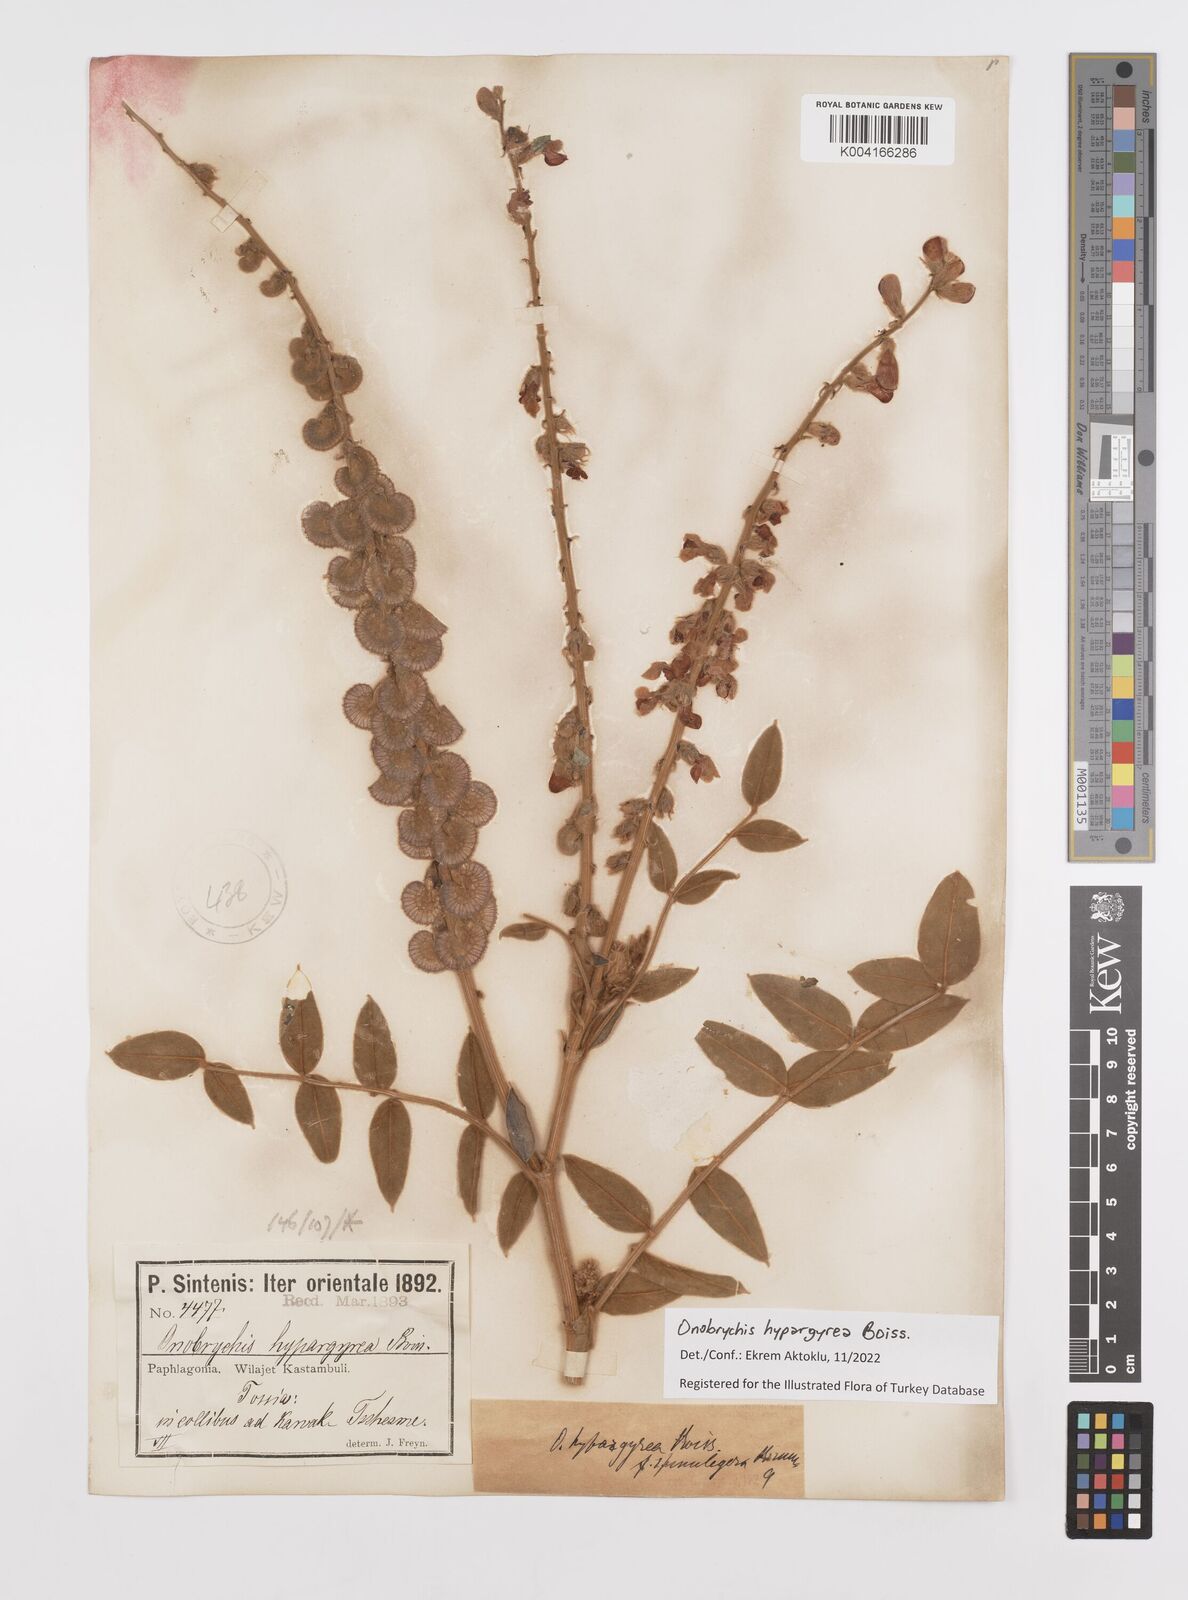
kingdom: Plantae
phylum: Tracheophyta
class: Magnoliopsida
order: Fabales
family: Fabaceae
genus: Onobrychis
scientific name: Onobrychis hypargyrea
